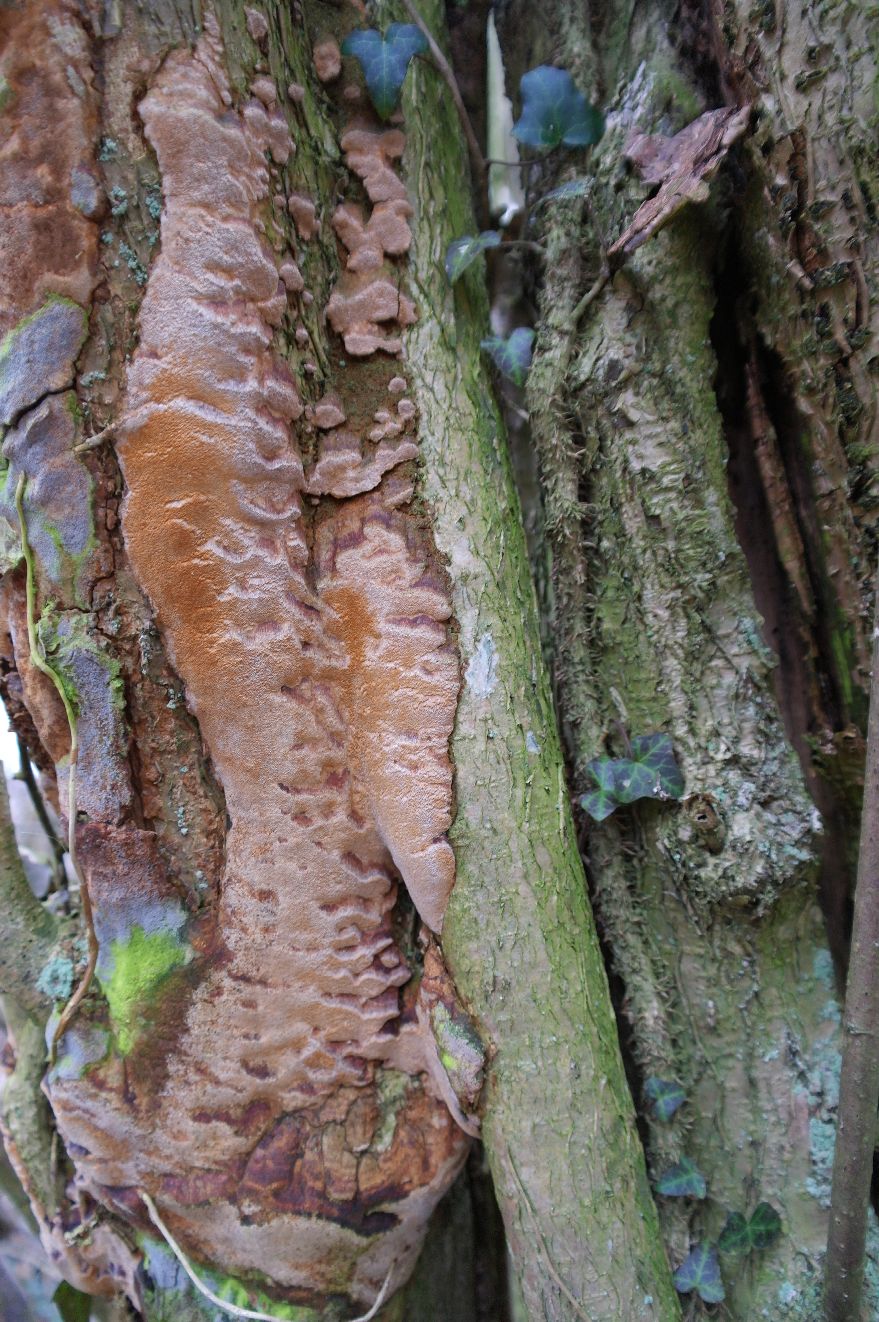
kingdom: Fungi
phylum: Basidiomycota
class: Agaricomycetes
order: Hymenochaetales
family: Hymenochaetaceae
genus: Fuscoporia
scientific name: Fuscoporia ferrea
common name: skorpe-ildporesvamp
